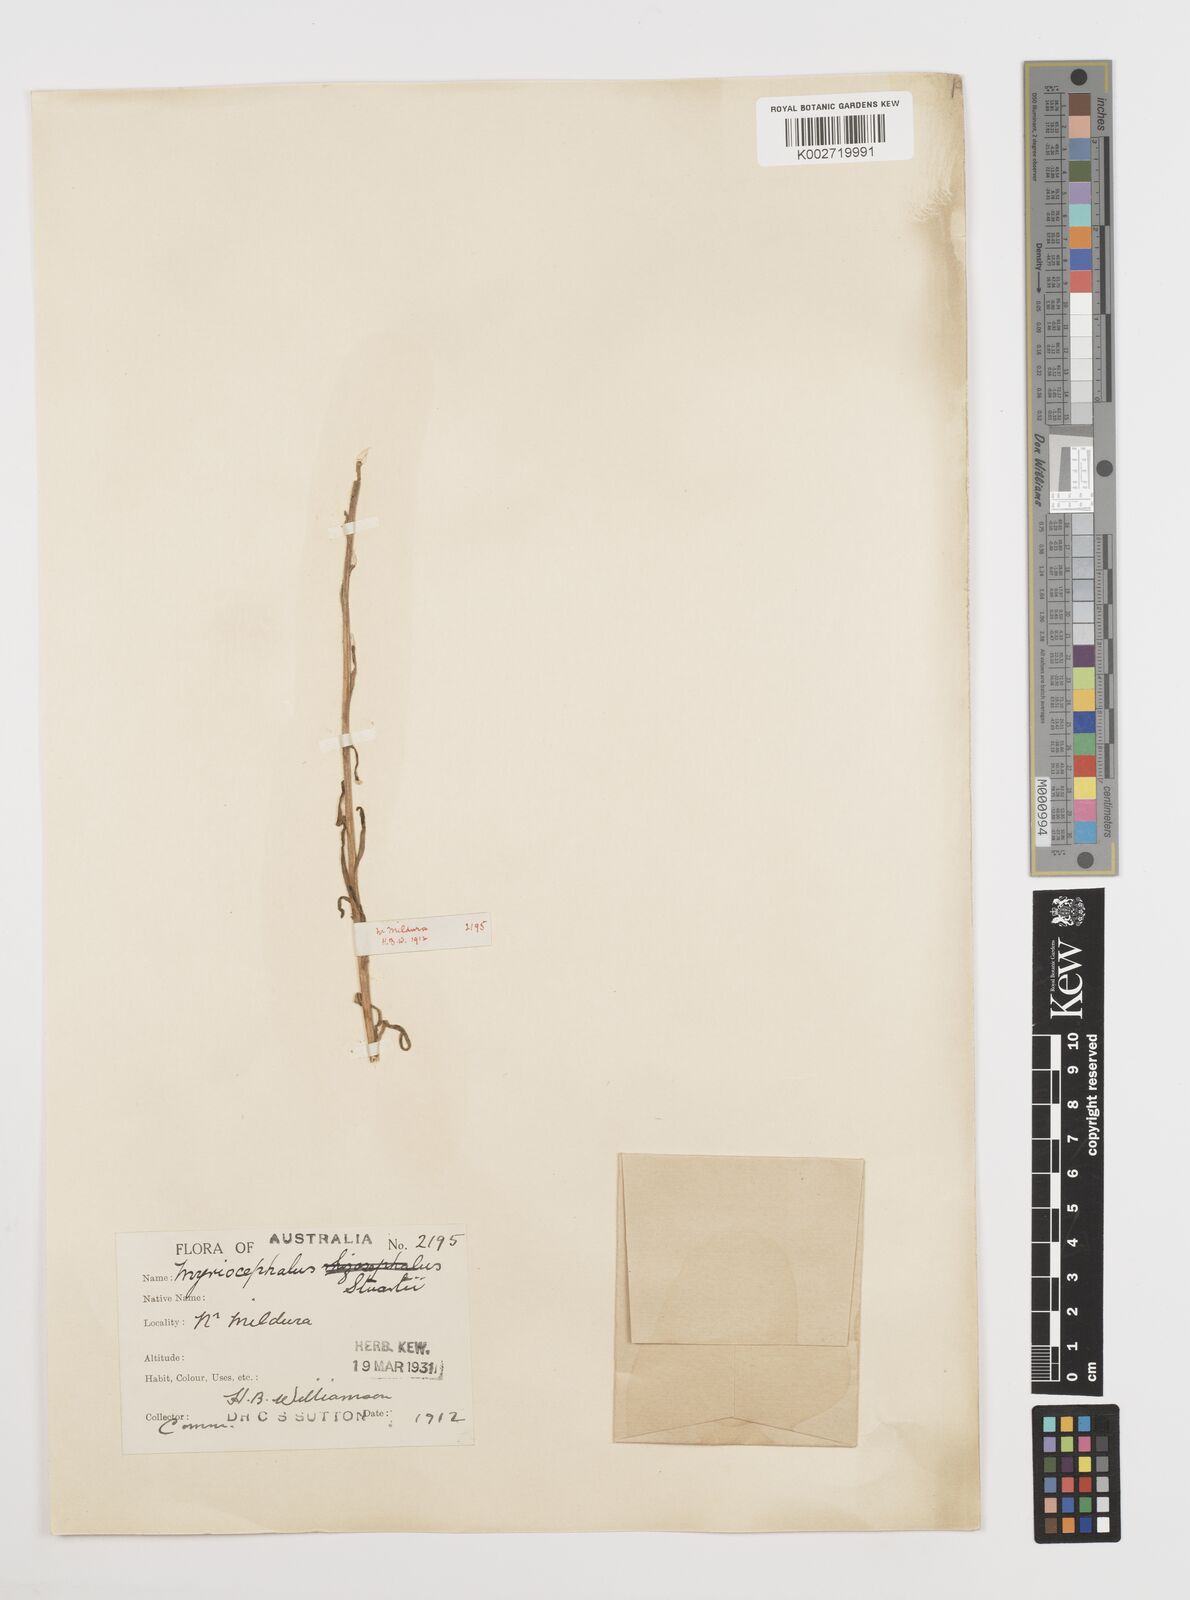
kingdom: Plantae
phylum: Tracheophyta
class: Magnoliopsida
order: Asterales
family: Asteraceae
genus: Polycalymma
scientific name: Polycalymma stuartii
